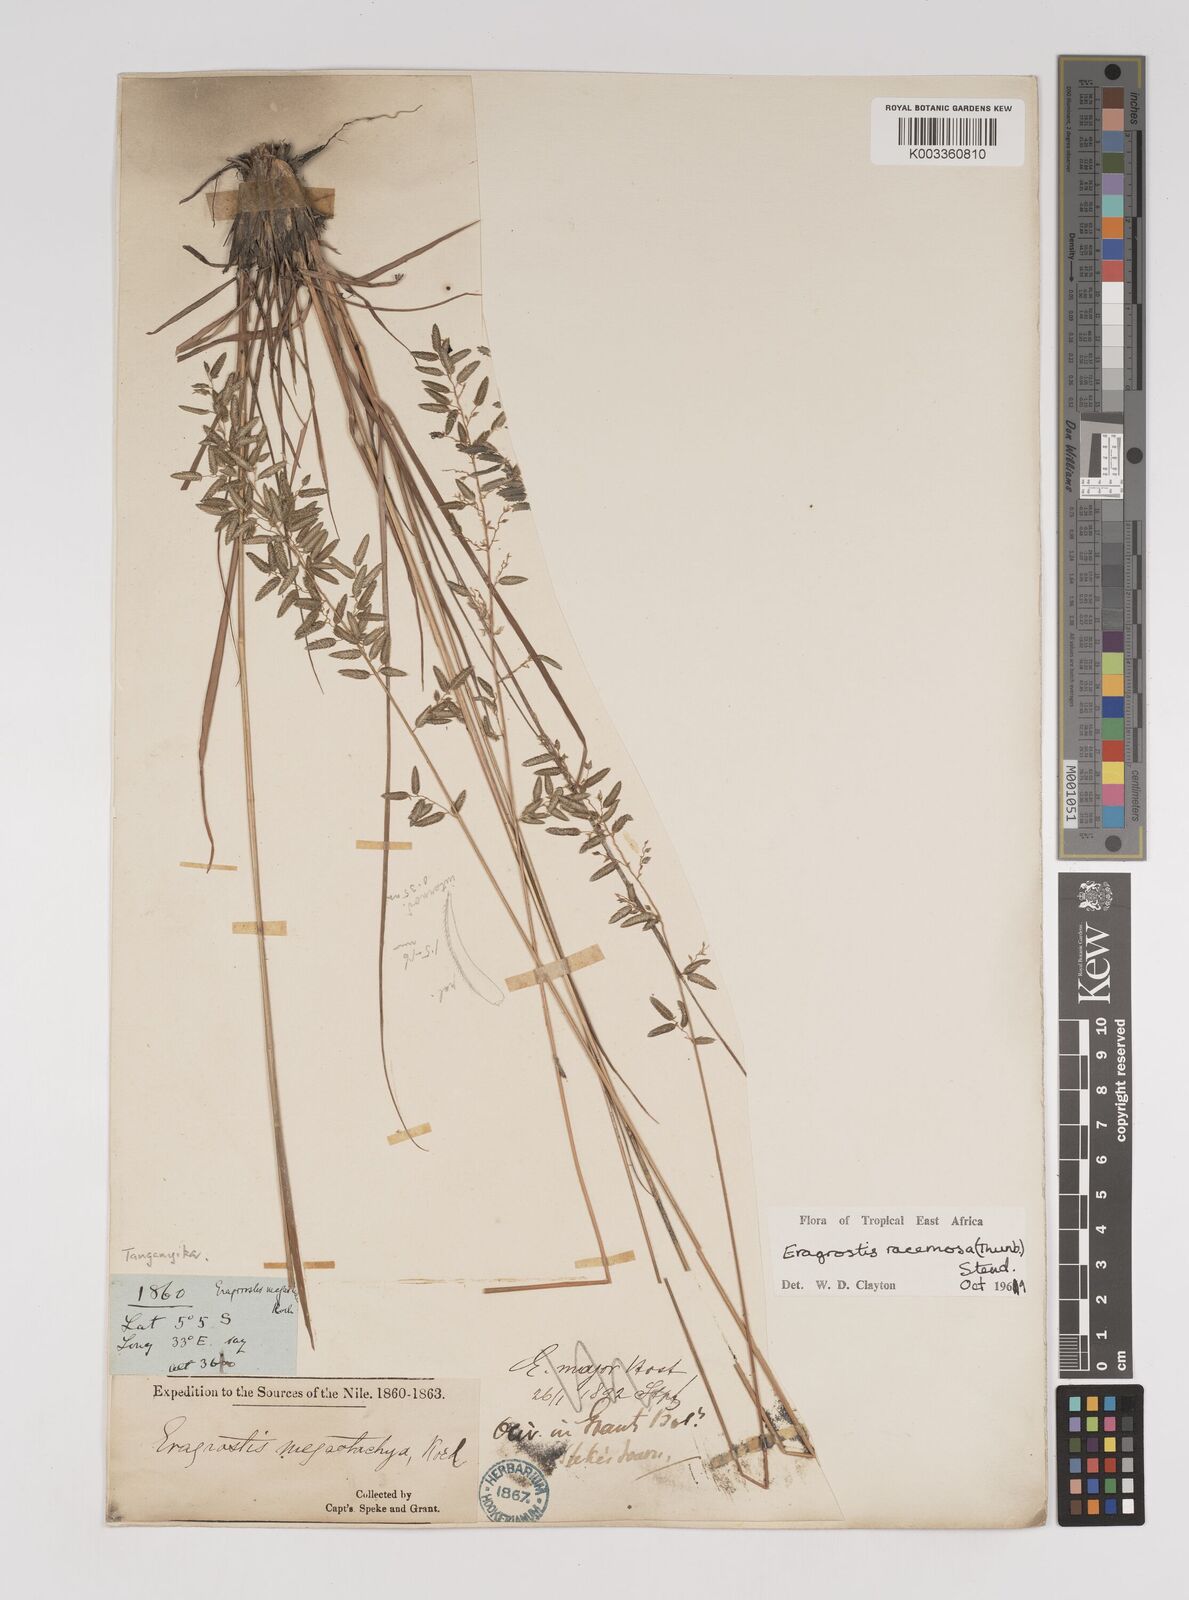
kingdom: Plantae
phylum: Tracheophyta
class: Liliopsida
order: Poales
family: Poaceae
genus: Eragrostis
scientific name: Eragrostis racemosa
